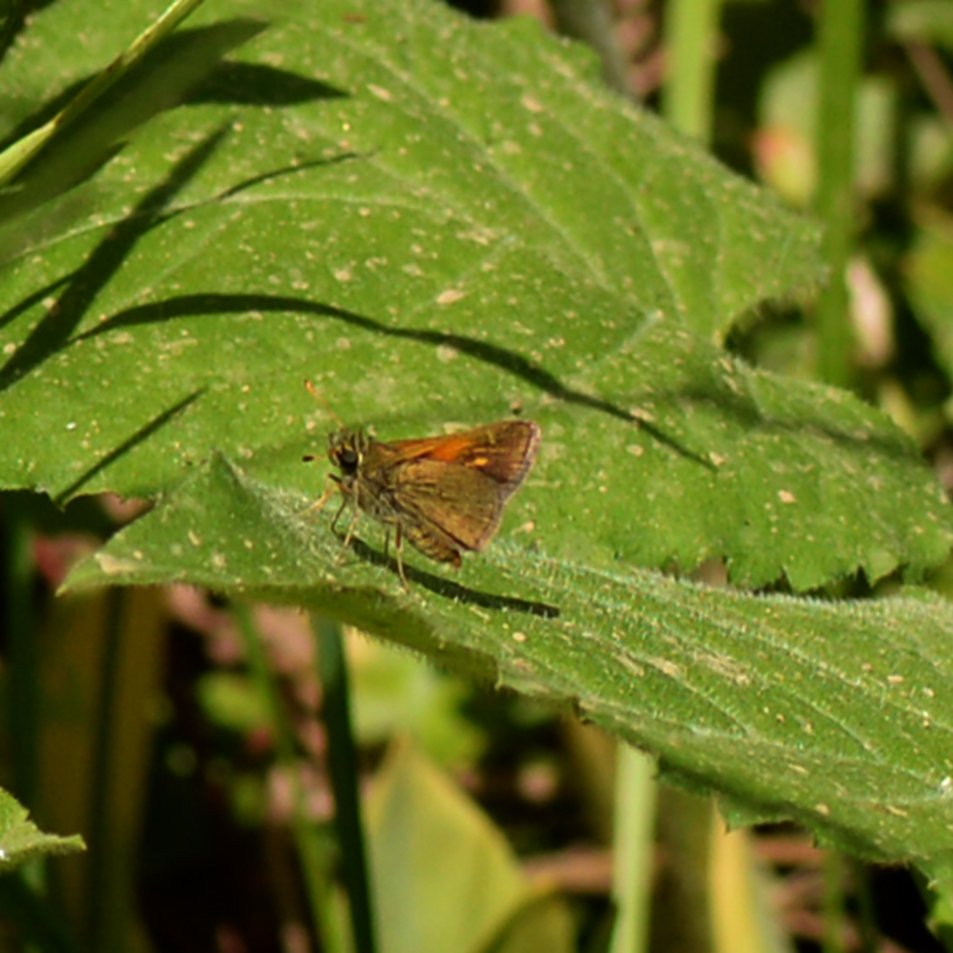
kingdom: Animalia
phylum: Arthropoda
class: Insecta
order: Lepidoptera
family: Hesperiidae
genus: Polites
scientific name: Polites themistocles
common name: Tawny-edged Skipper
